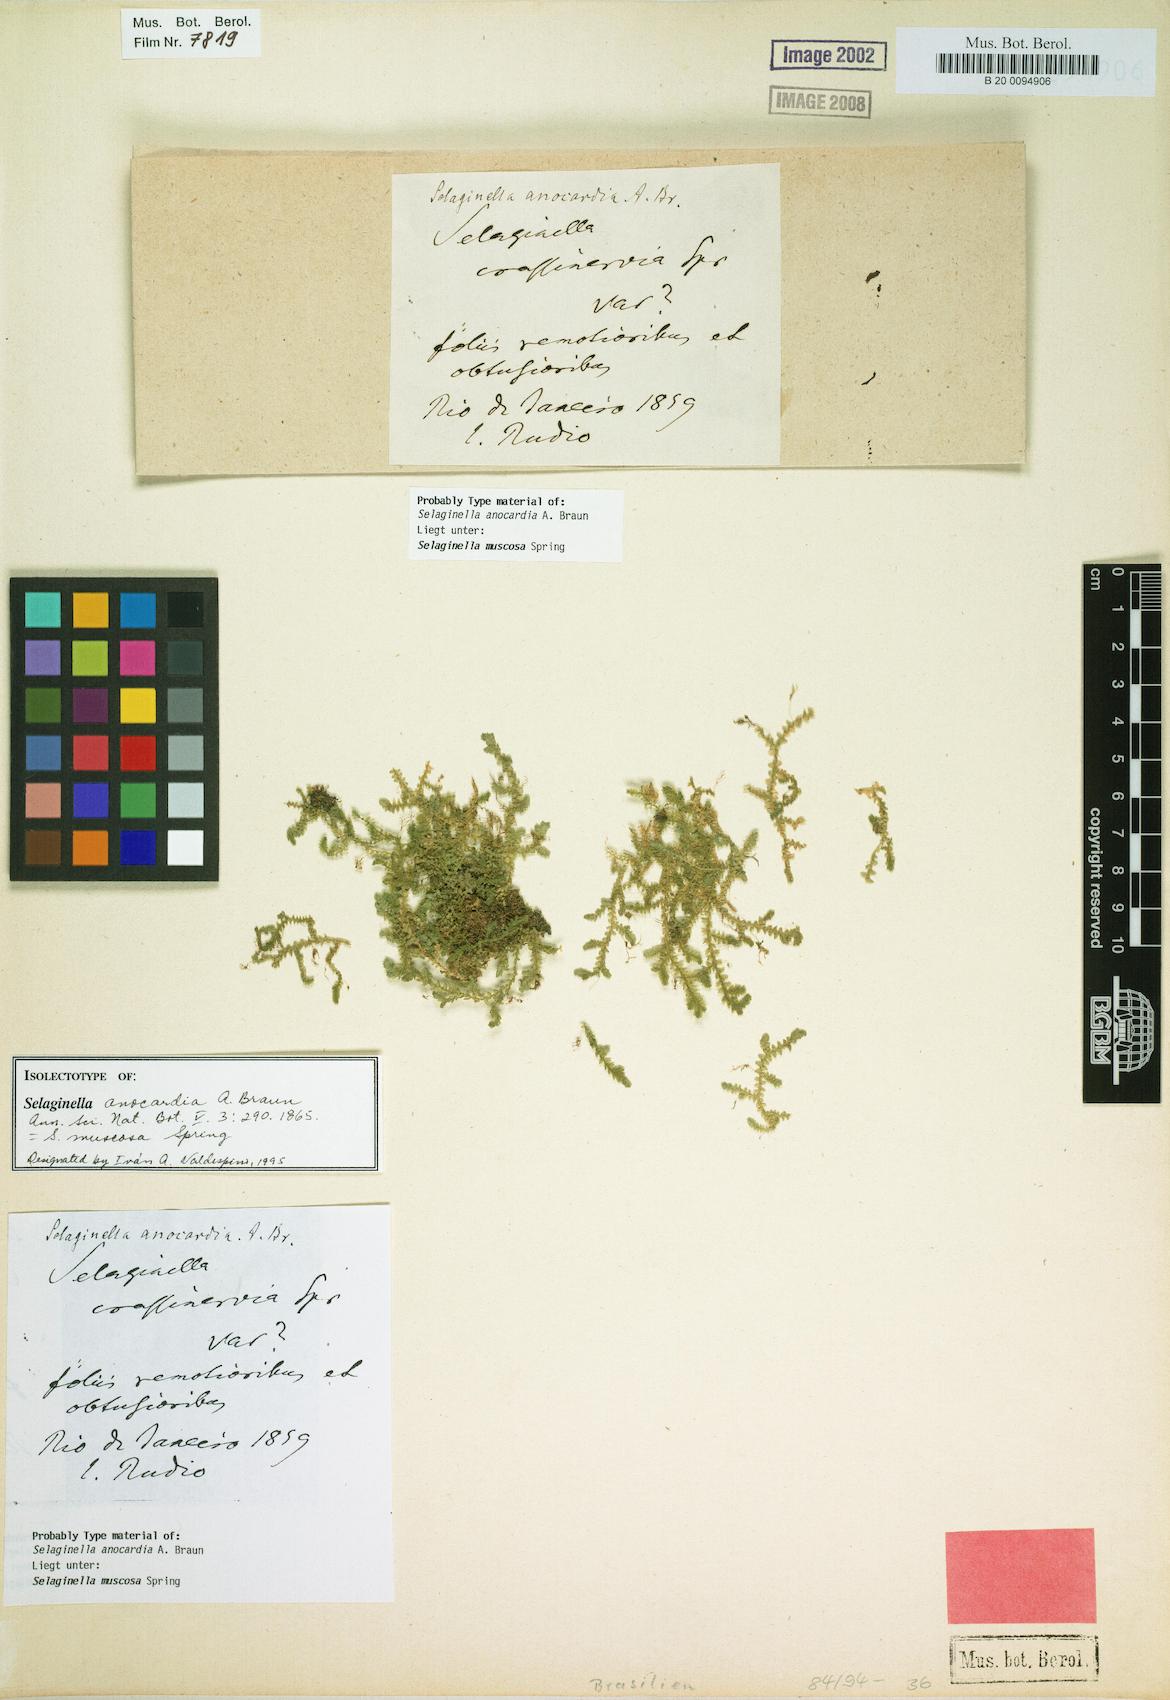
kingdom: Plantae
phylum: Tracheophyta
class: Lycopodiopsida
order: Selaginellales
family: Selaginellaceae
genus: Selaginella
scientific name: Selaginella muscosa
